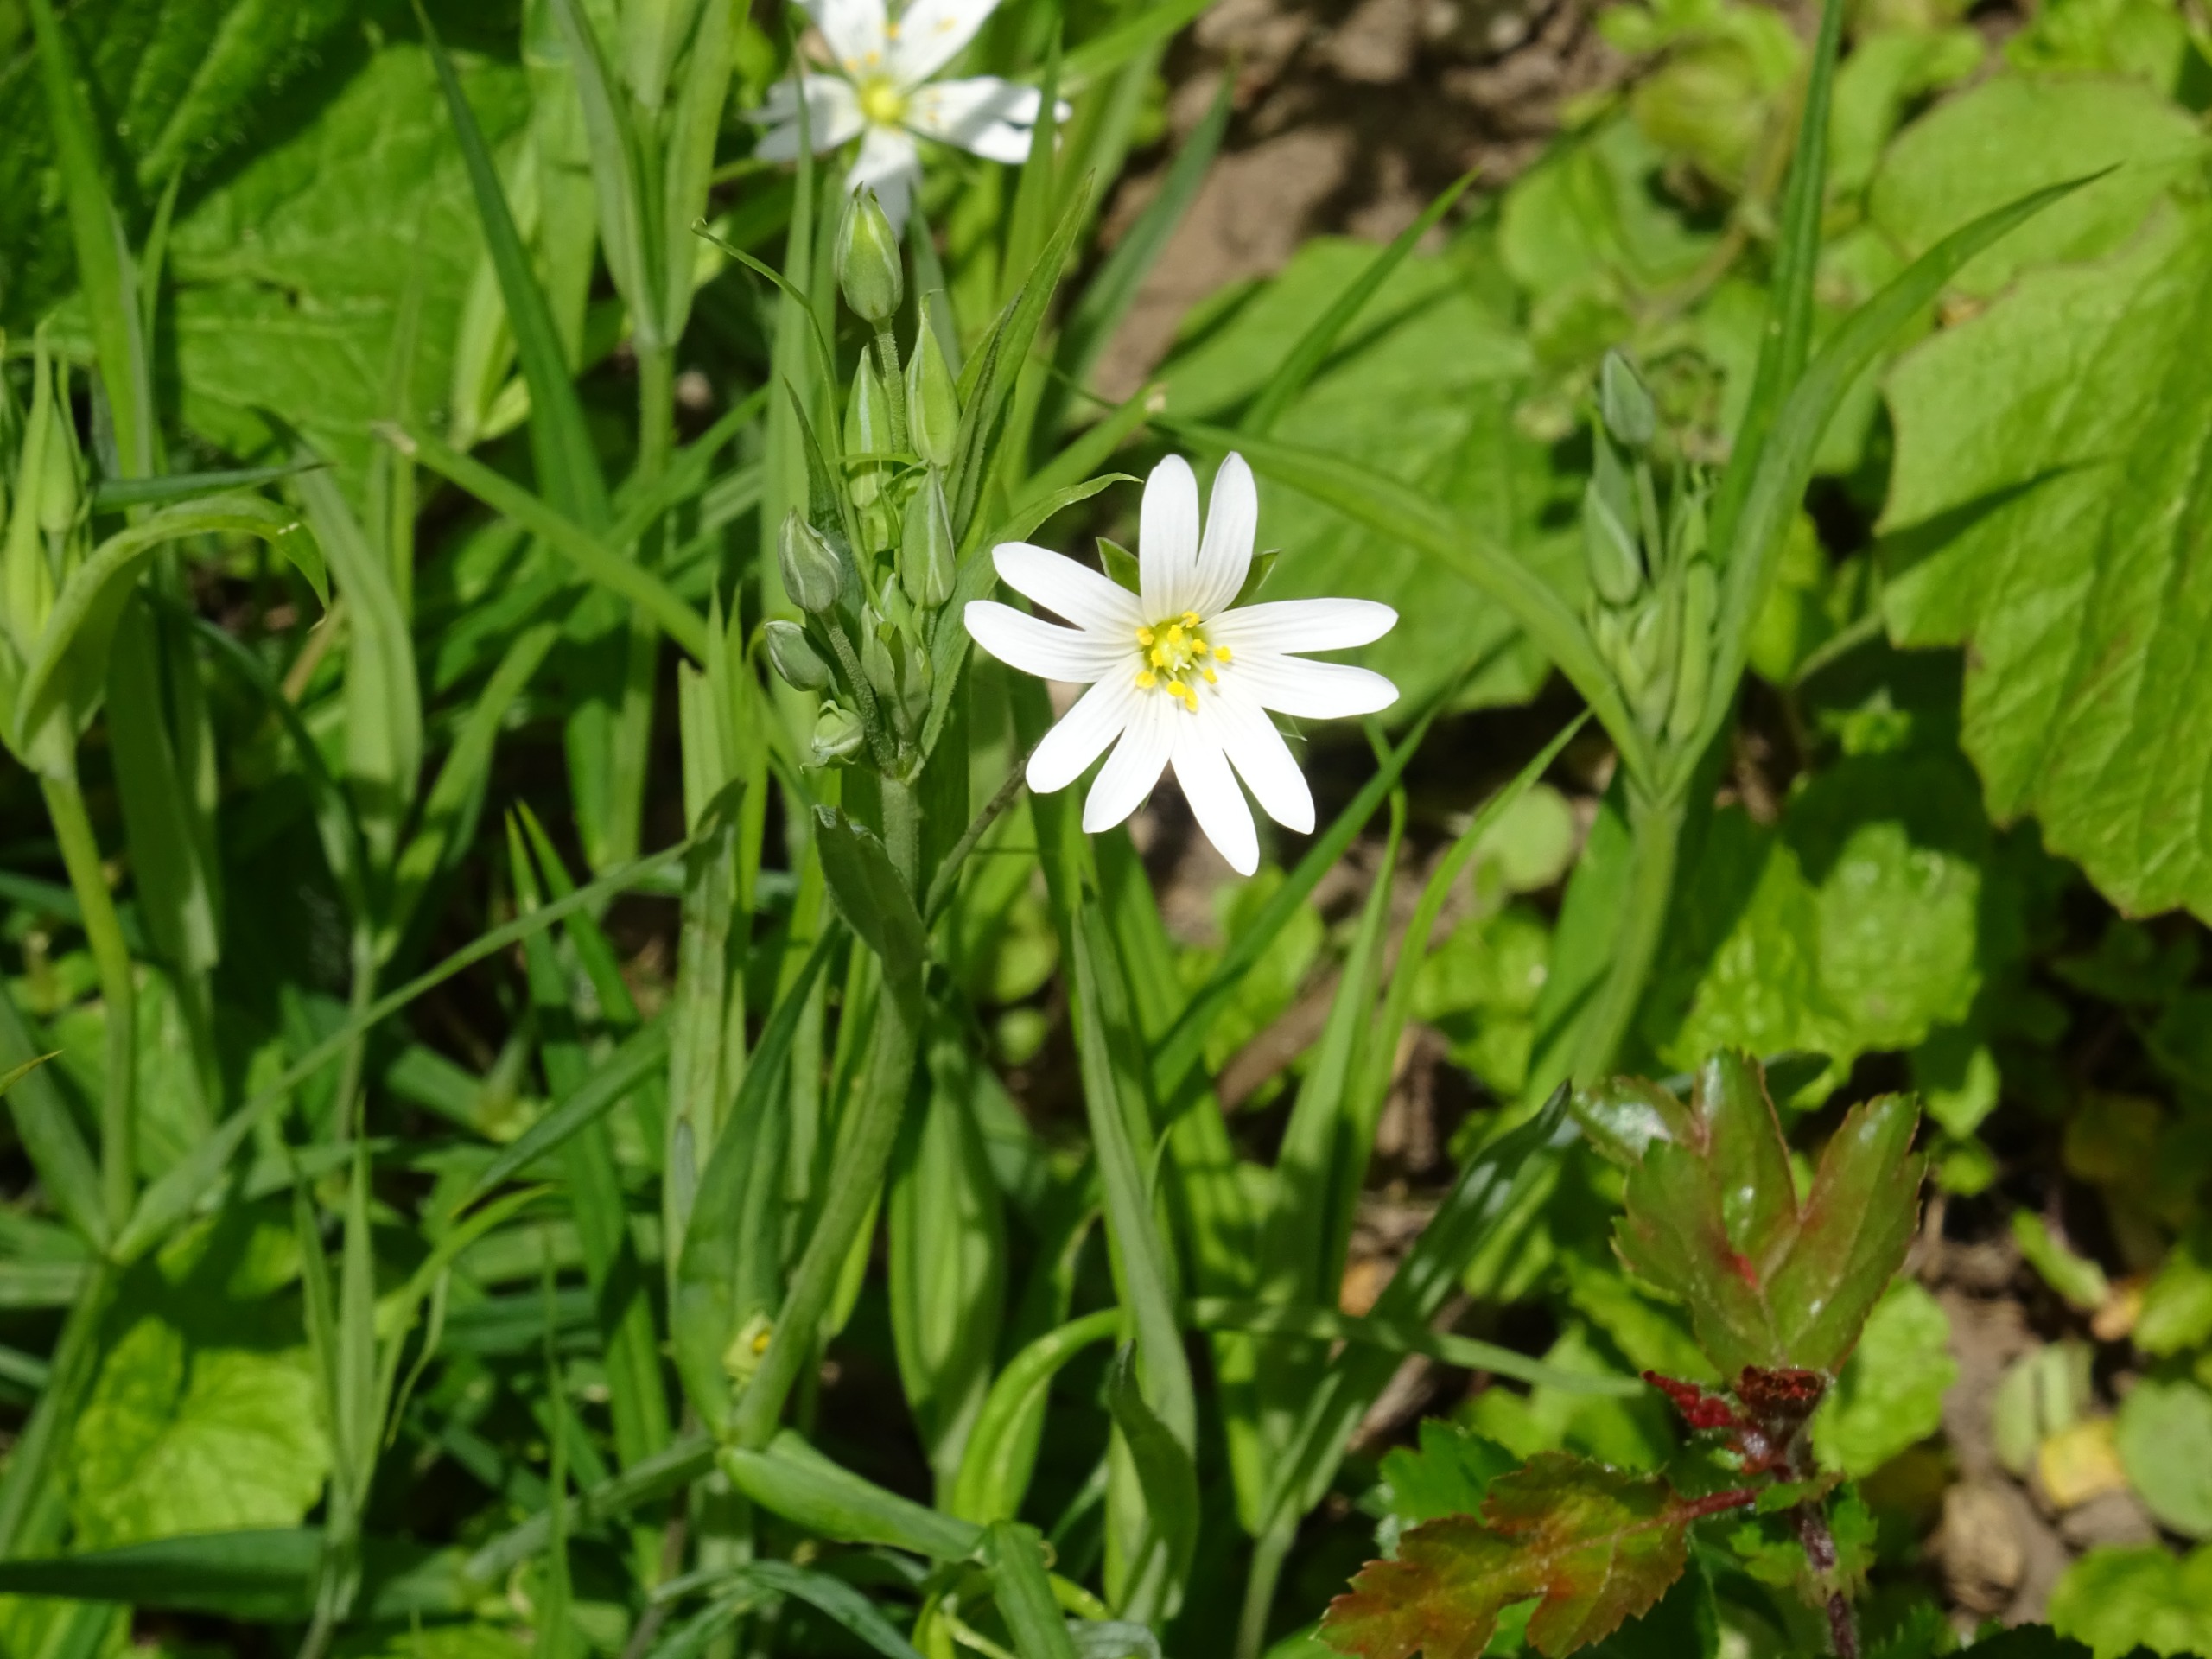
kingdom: Plantae
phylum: Tracheophyta
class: Magnoliopsida
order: Caryophyllales
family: Caryophyllaceae
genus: Rabelera
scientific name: Rabelera holostea
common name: Stor fladstjerne
